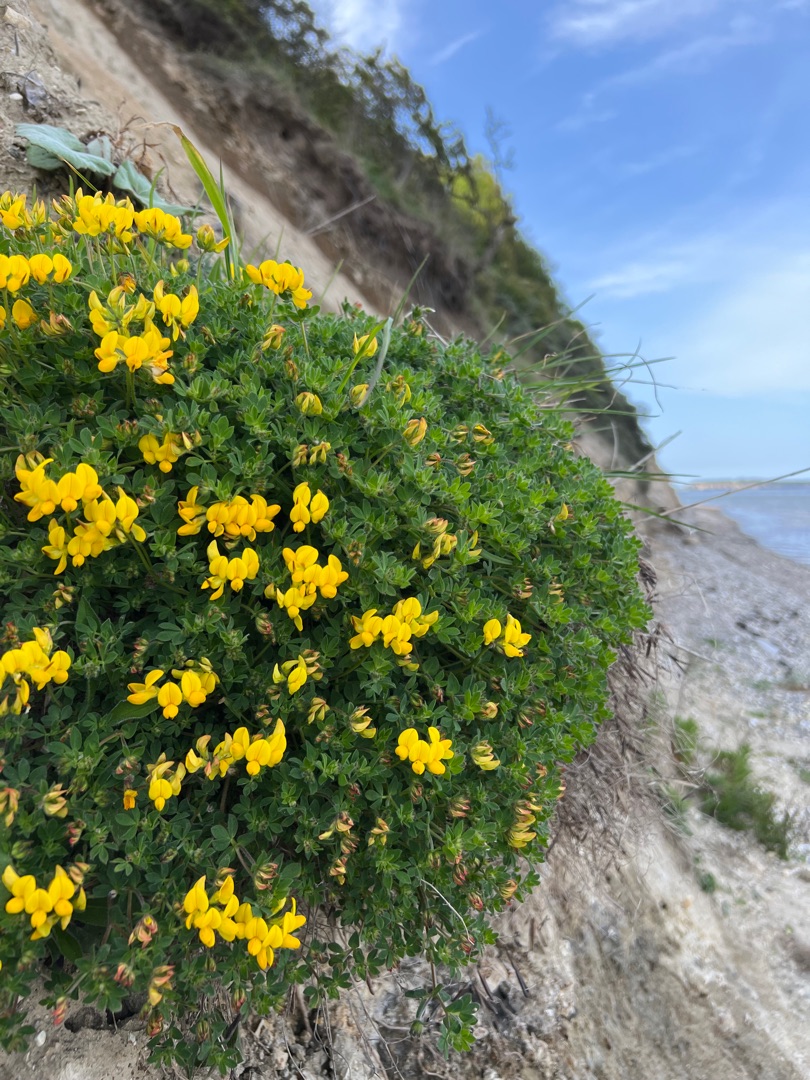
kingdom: Plantae
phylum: Tracheophyta
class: Magnoliopsida
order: Fabales
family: Fabaceae
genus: Lotus
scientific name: Lotus corniculatus
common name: Almindelig kællingetand
